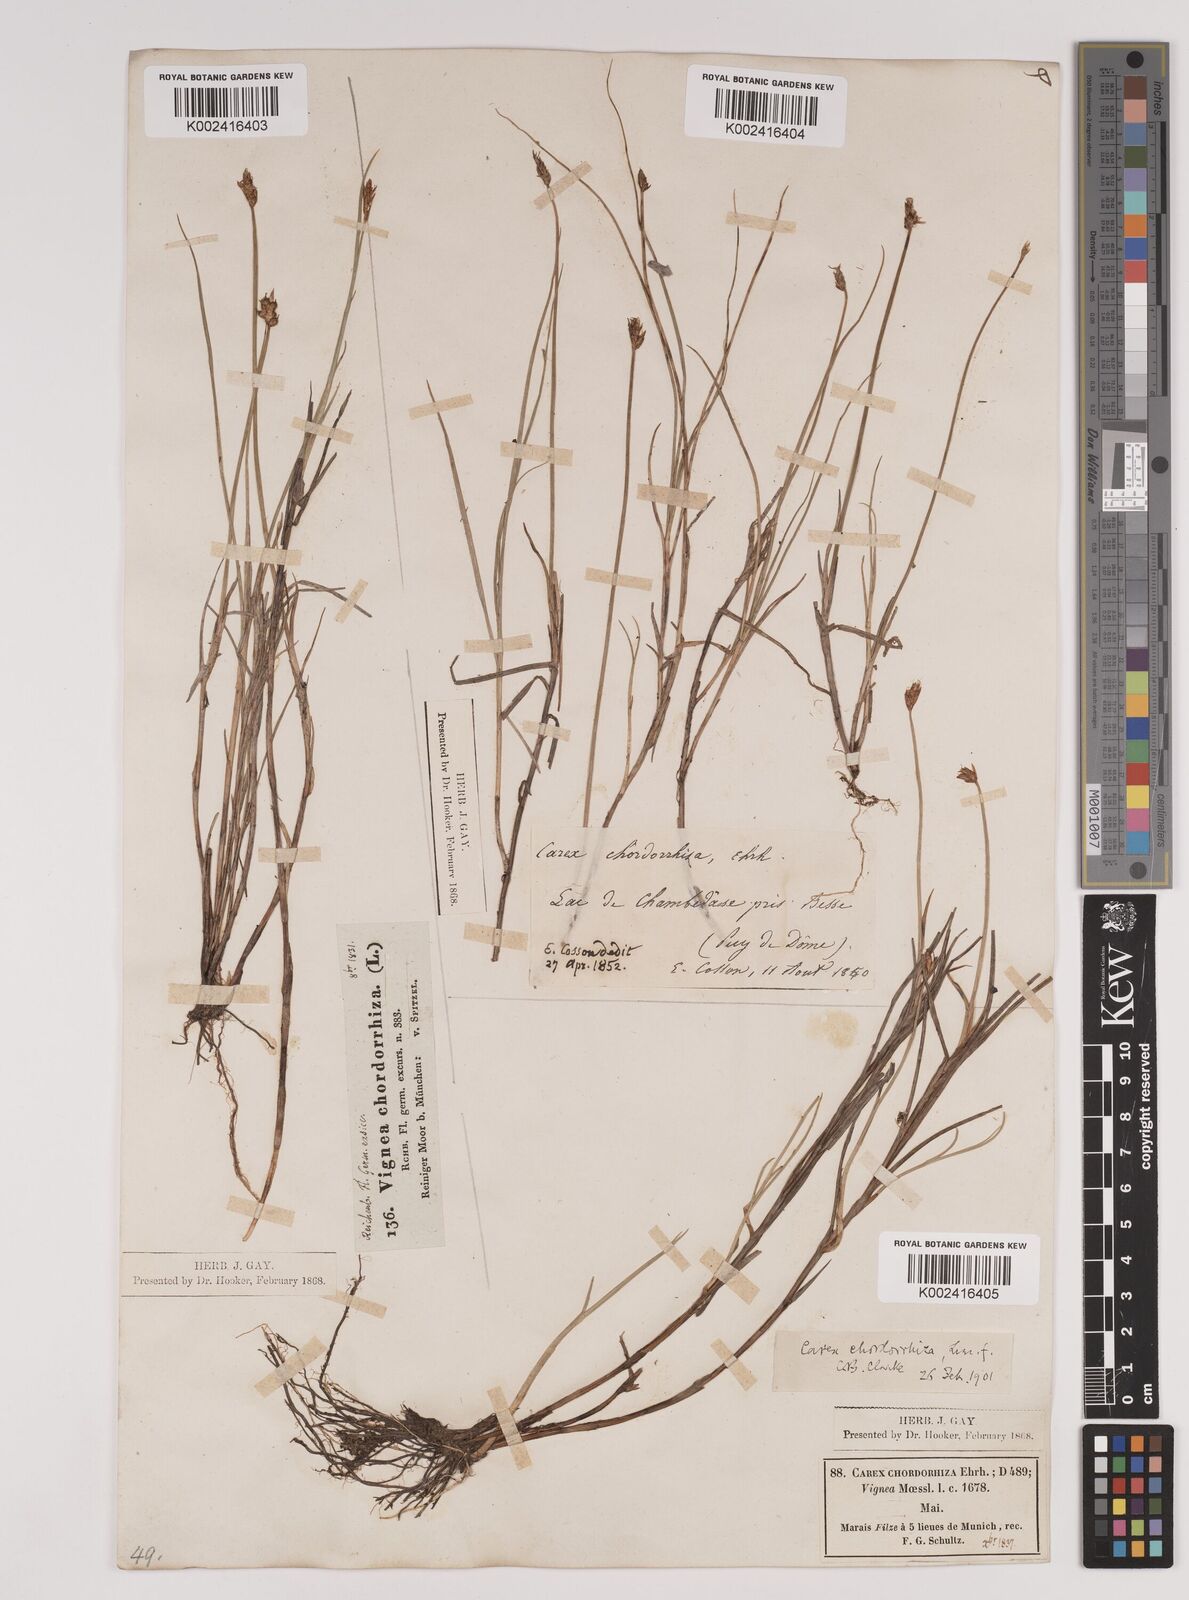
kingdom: Plantae
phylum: Tracheophyta
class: Liliopsida
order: Poales
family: Cyperaceae
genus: Carex
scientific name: Carex chordorrhiza
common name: String sedge
